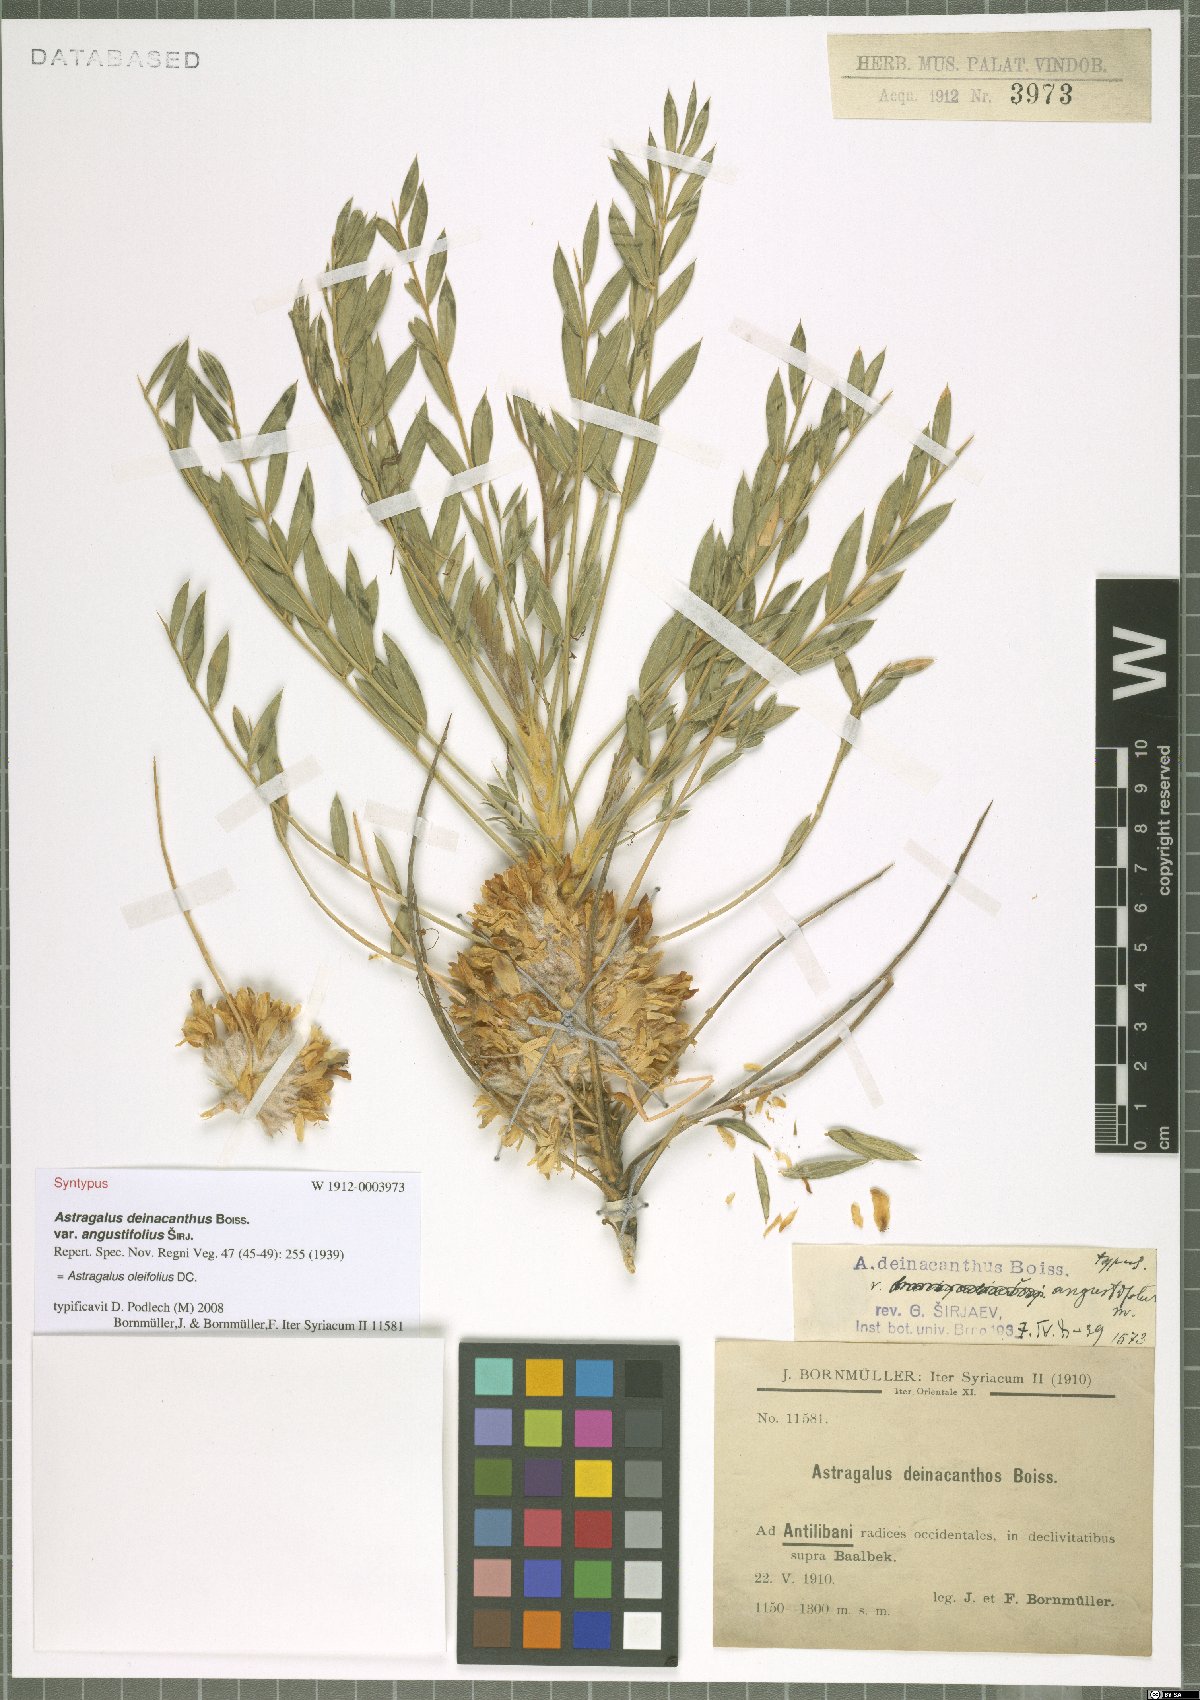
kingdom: Plantae
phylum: Tracheophyta
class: Magnoliopsida
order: Fabales
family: Fabaceae
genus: Astragalus
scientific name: Astragalus oleifolius
